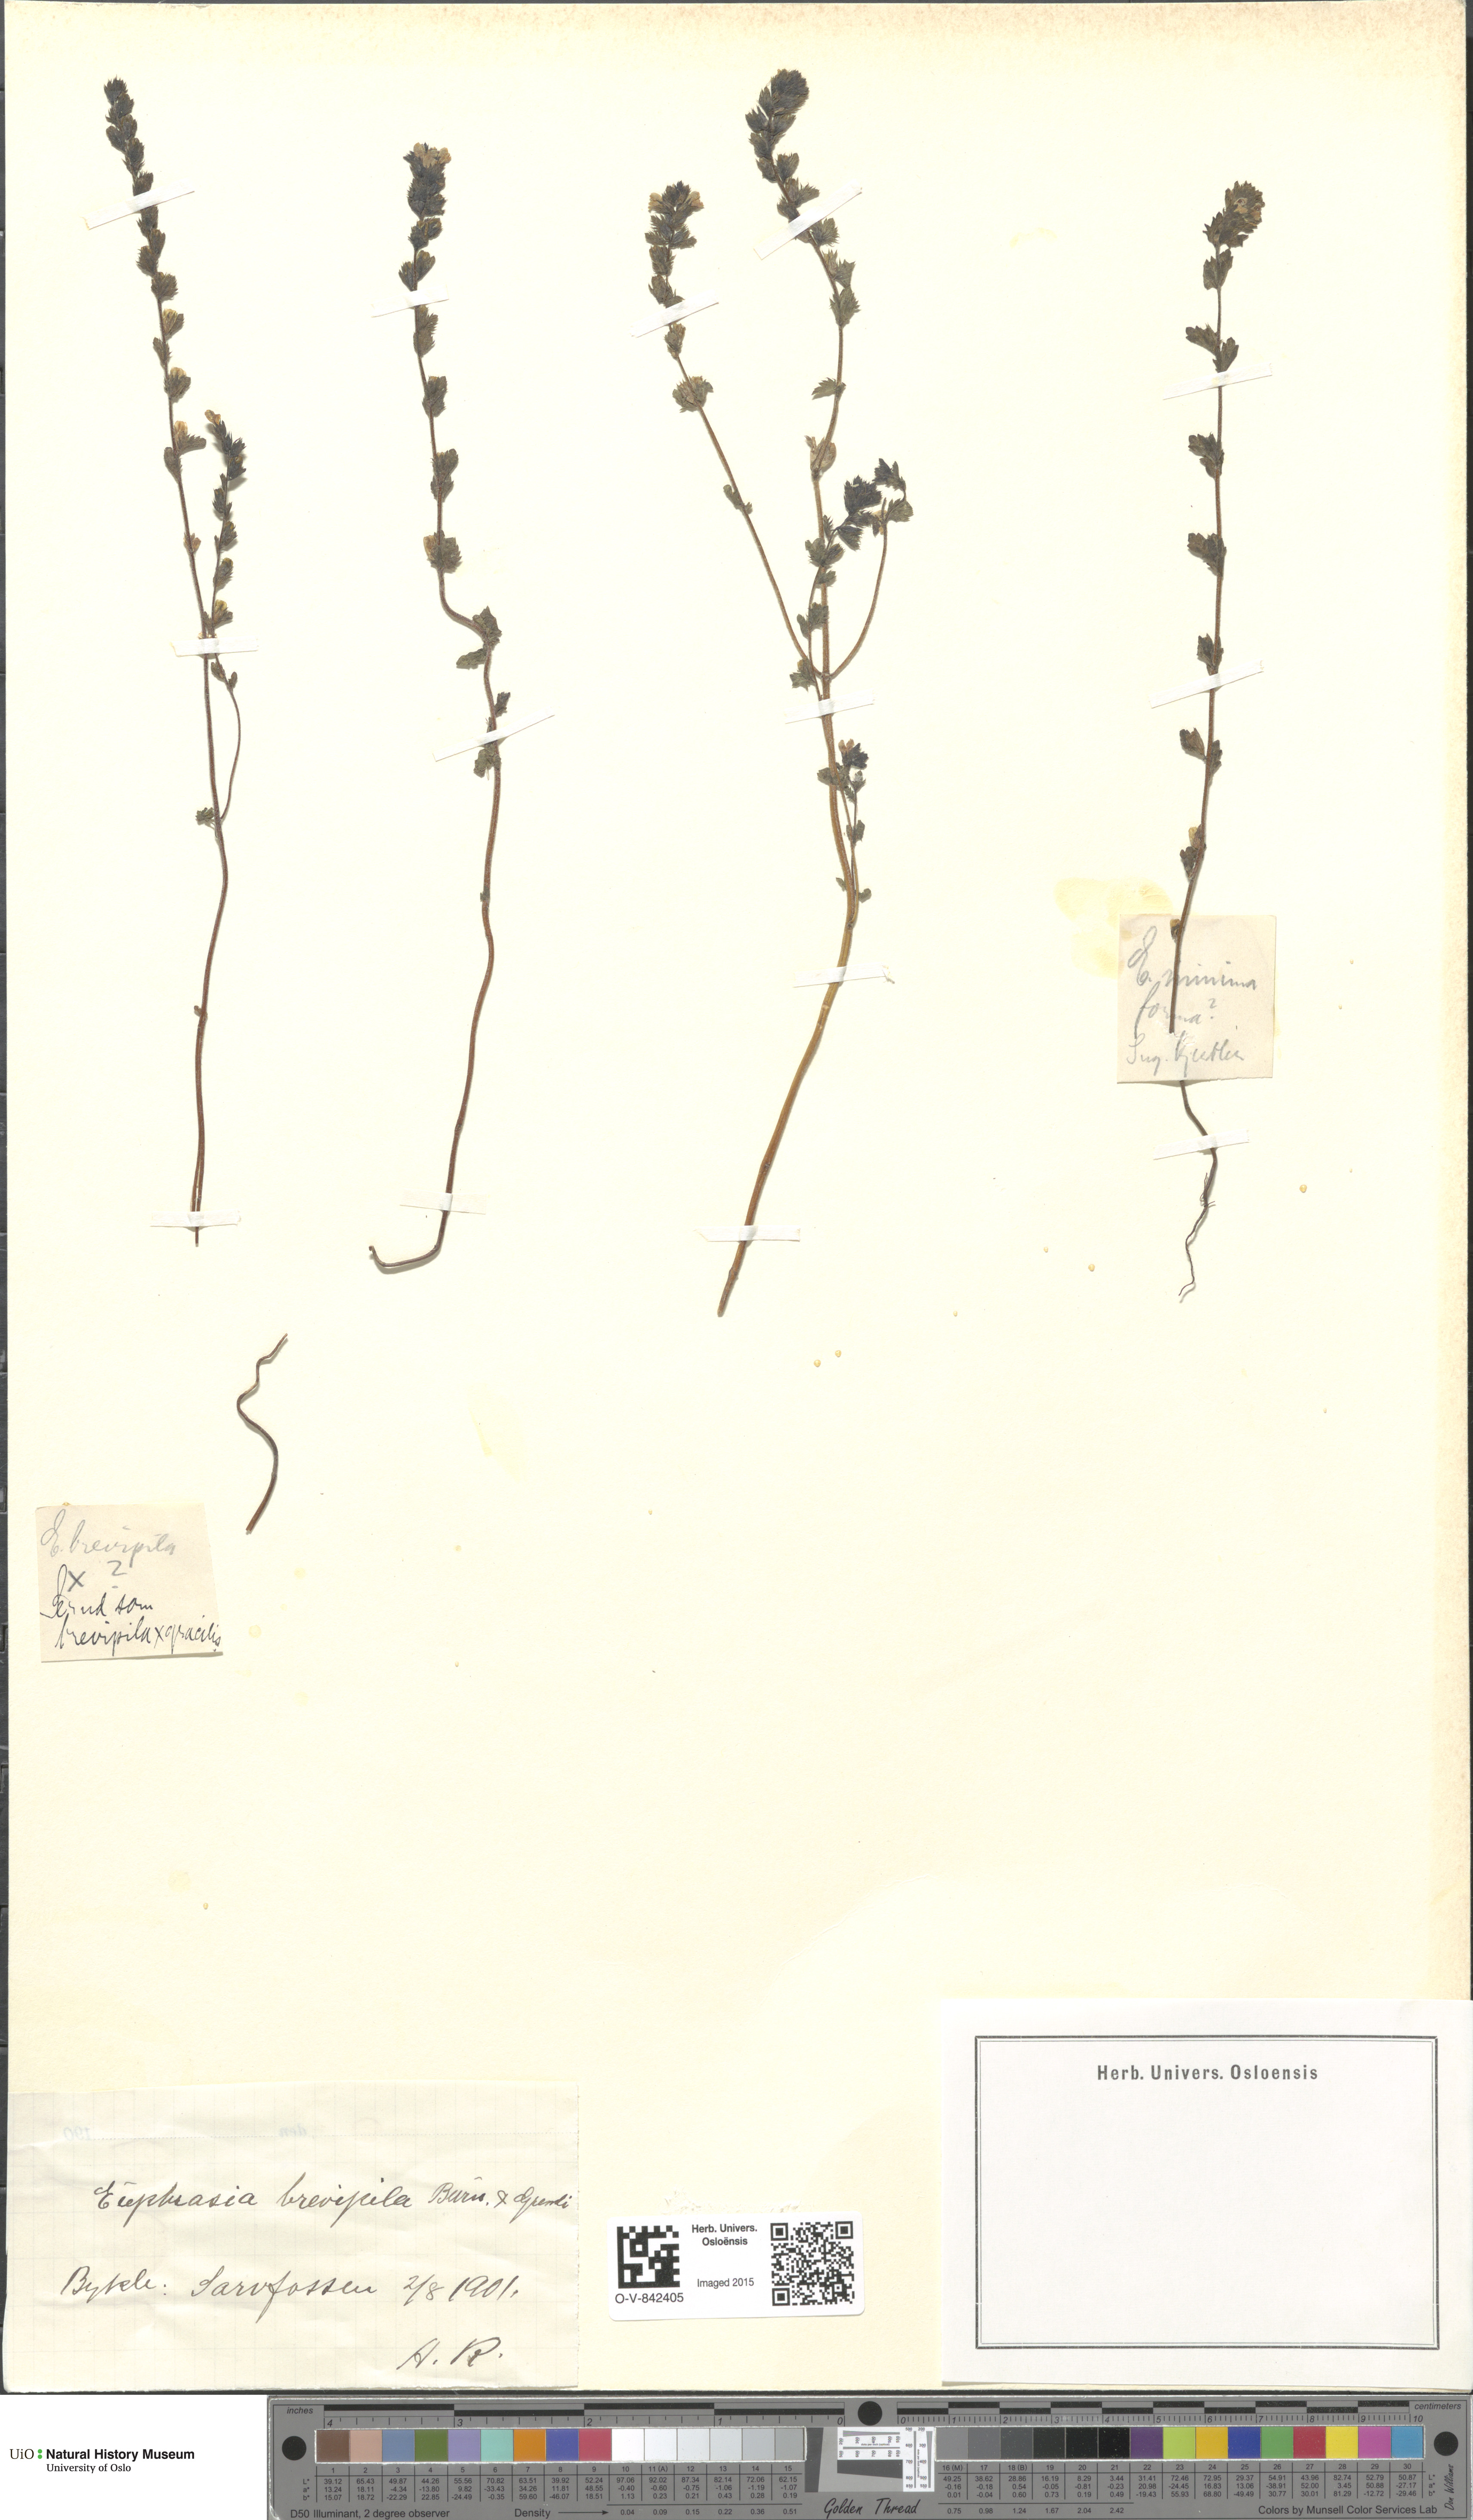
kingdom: Plantae
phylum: Tracheophyta
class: Magnoliopsida
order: Lamiales
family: Orobanchaceae
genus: Euphrasia
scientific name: Euphrasia vernalis
